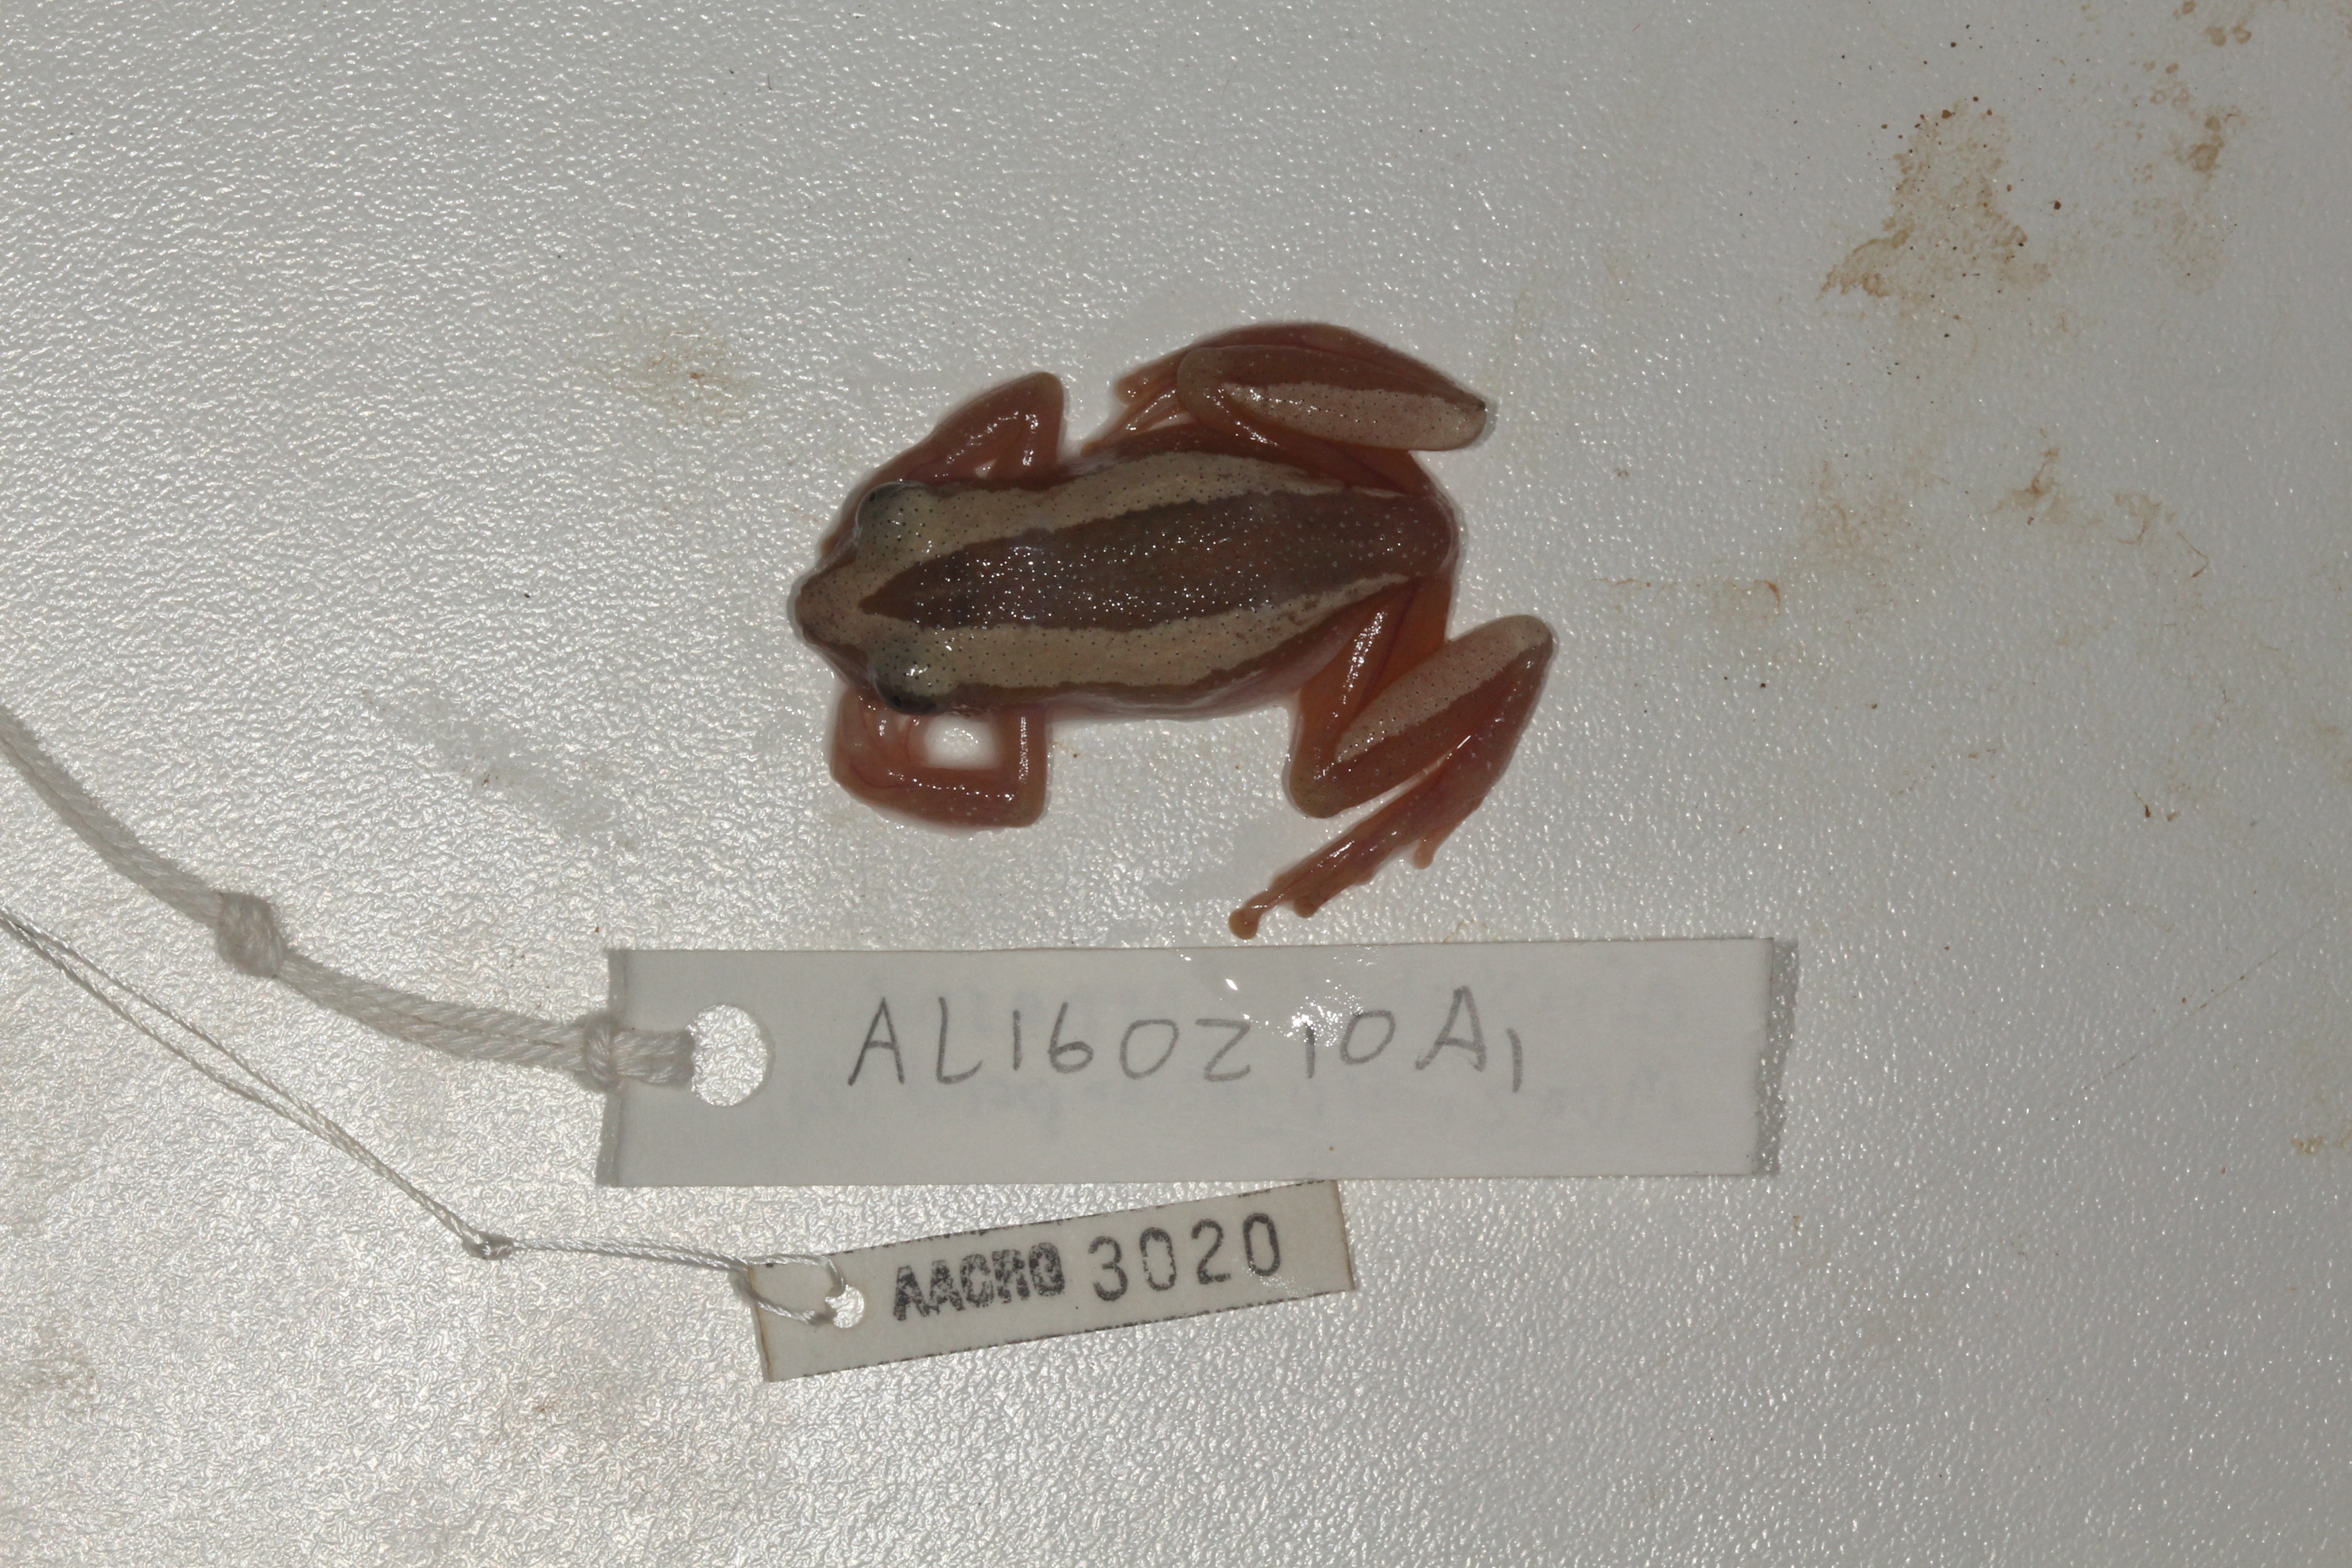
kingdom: Animalia
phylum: Chordata
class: Amphibia
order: Anura
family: Hyperoliidae
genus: Afrixalus
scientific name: Afrixalus fornasini
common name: Fornasini's spiny reed frog
